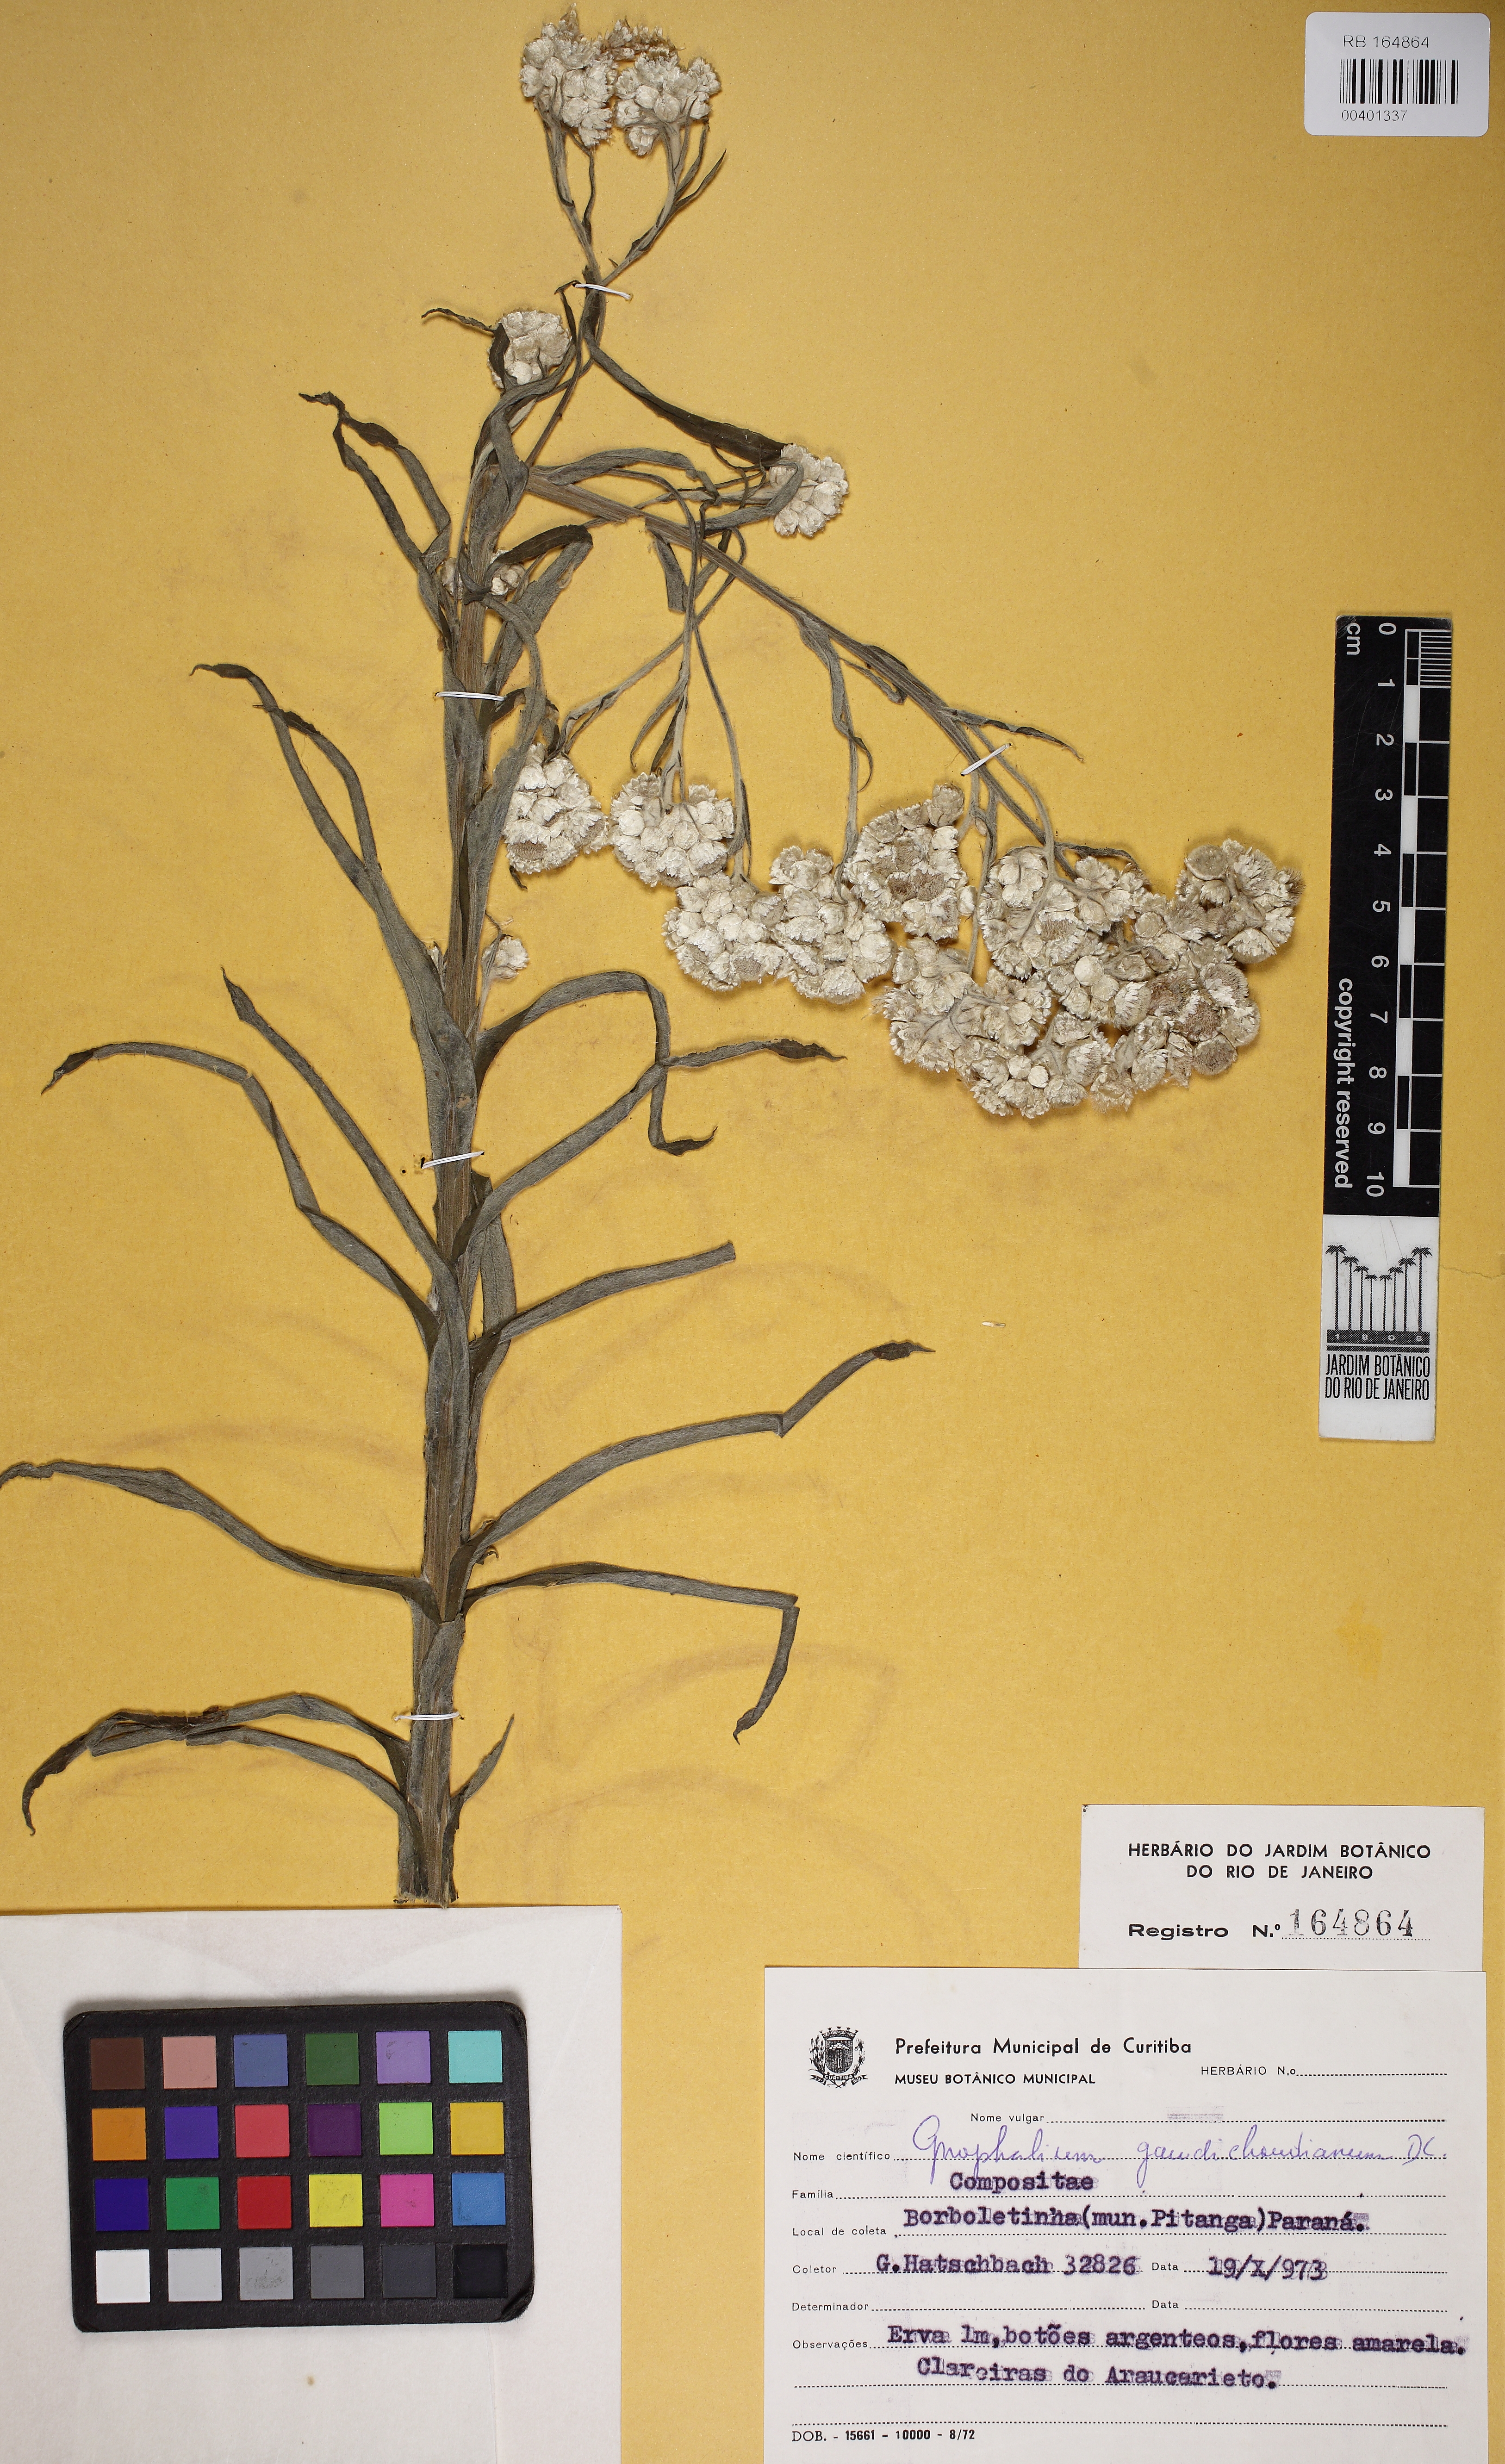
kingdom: Plantae
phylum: Tracheophyta
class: Magnoliopsida
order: Asterales
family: Asteraceae
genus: Pseudognaphalium
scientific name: Pseudognaphalium gaudichaudianum
